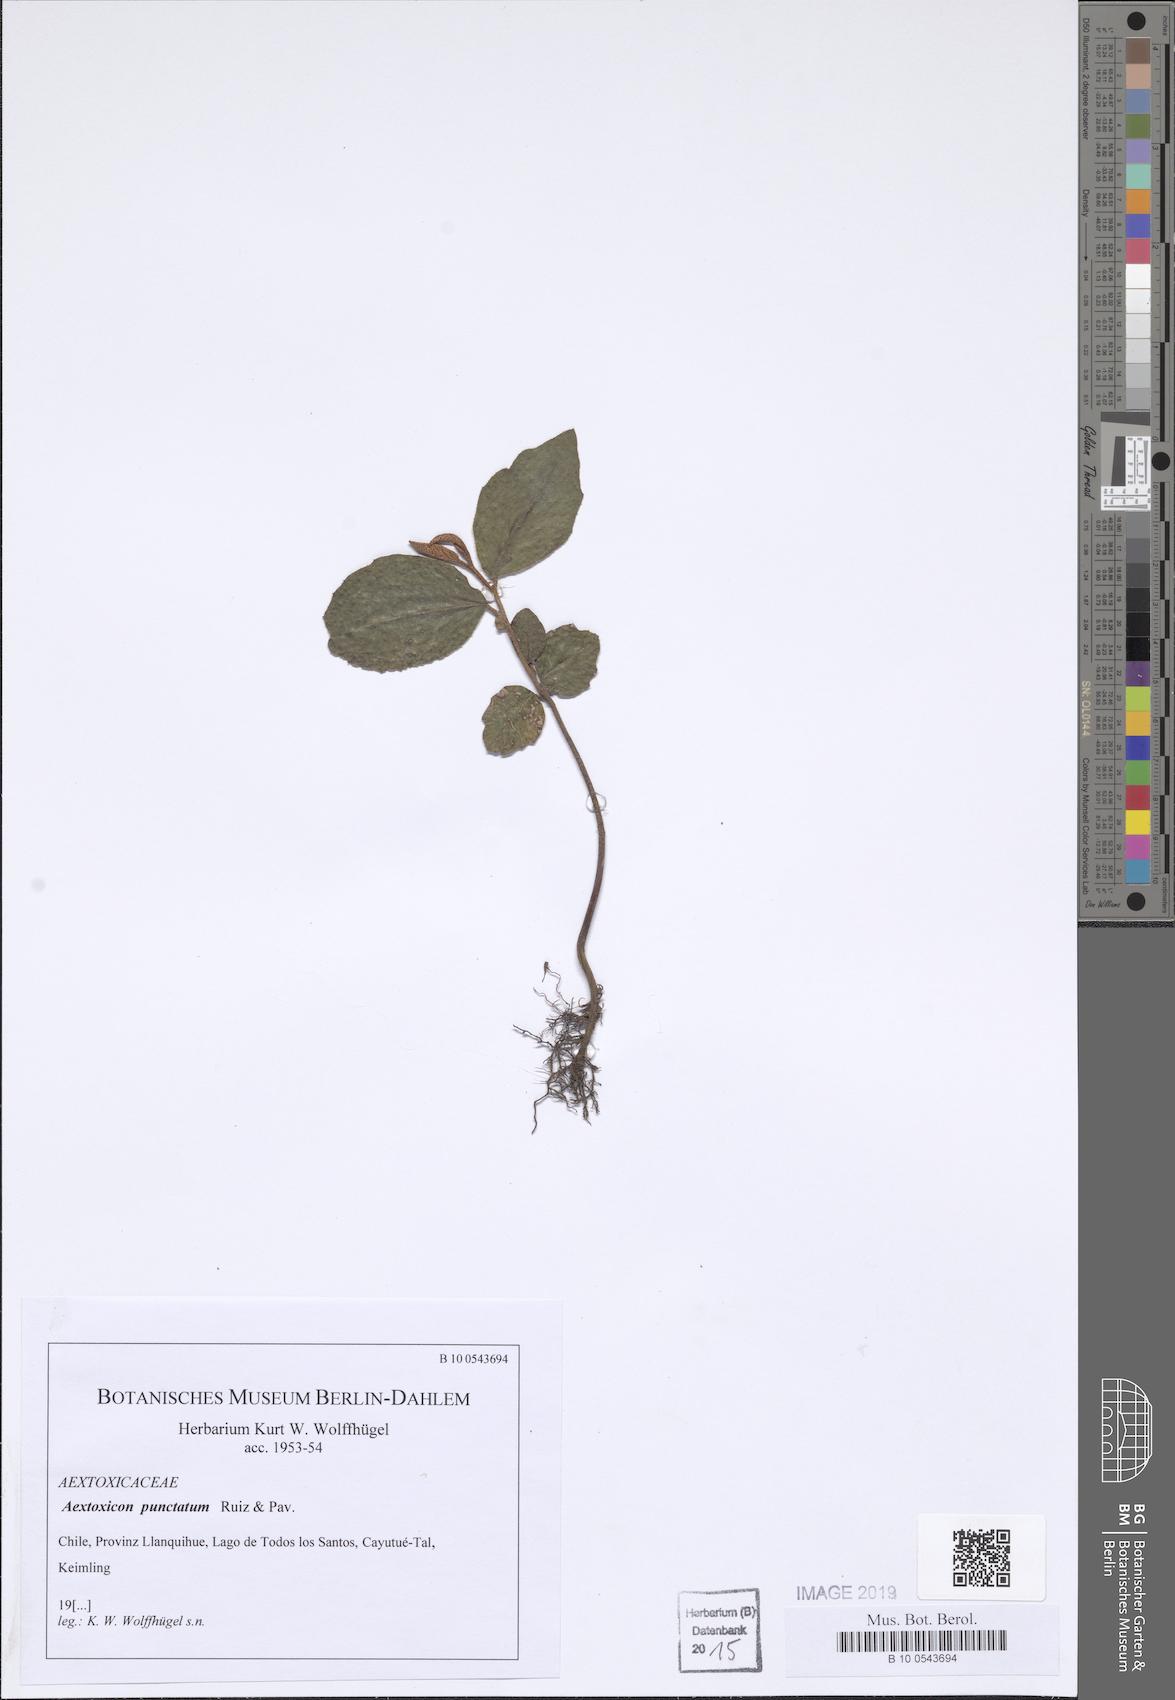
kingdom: Plantae
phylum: Tracheophyta
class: Magnoliopsida
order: Berberidopsidales
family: Aextoxicaceae
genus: Aextoxicon
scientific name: Aextoxicon punctatum
